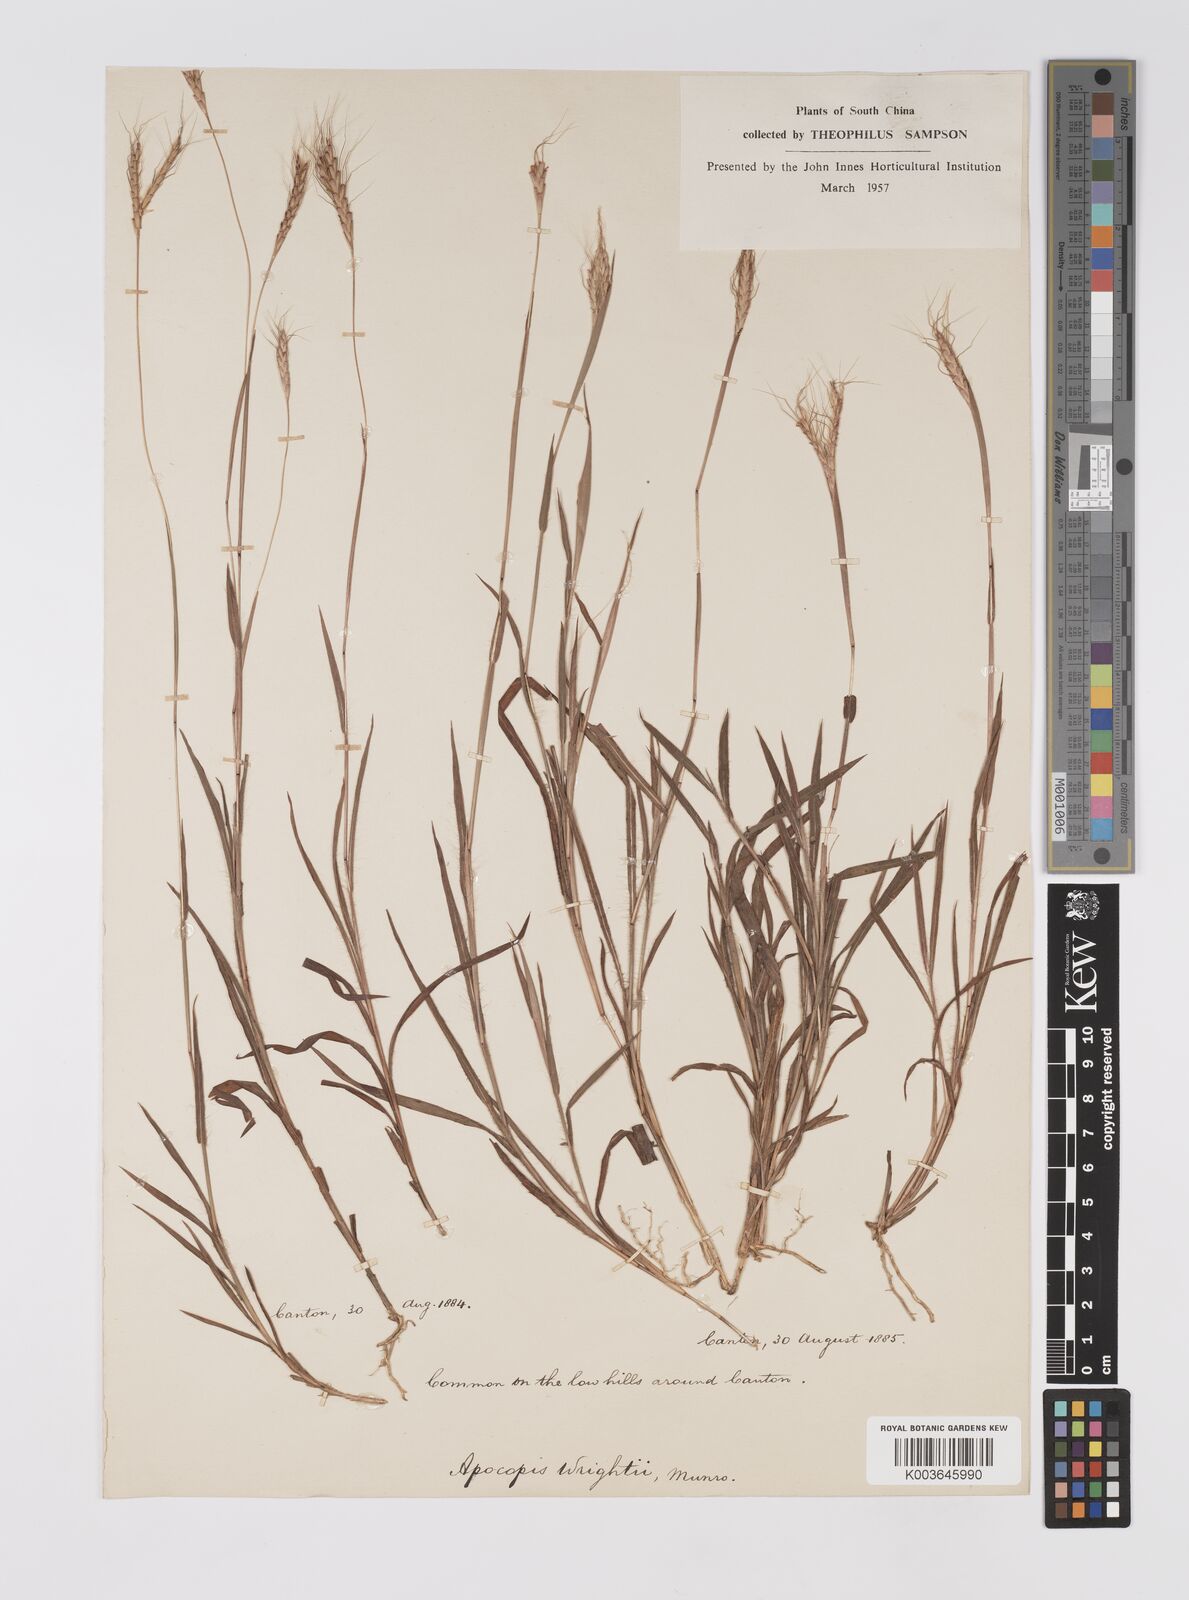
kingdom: Plantae
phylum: Tracheophyta
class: Liliopsida
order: Poales
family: Poaceae
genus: Apocopis
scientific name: Apocopis wrightii
